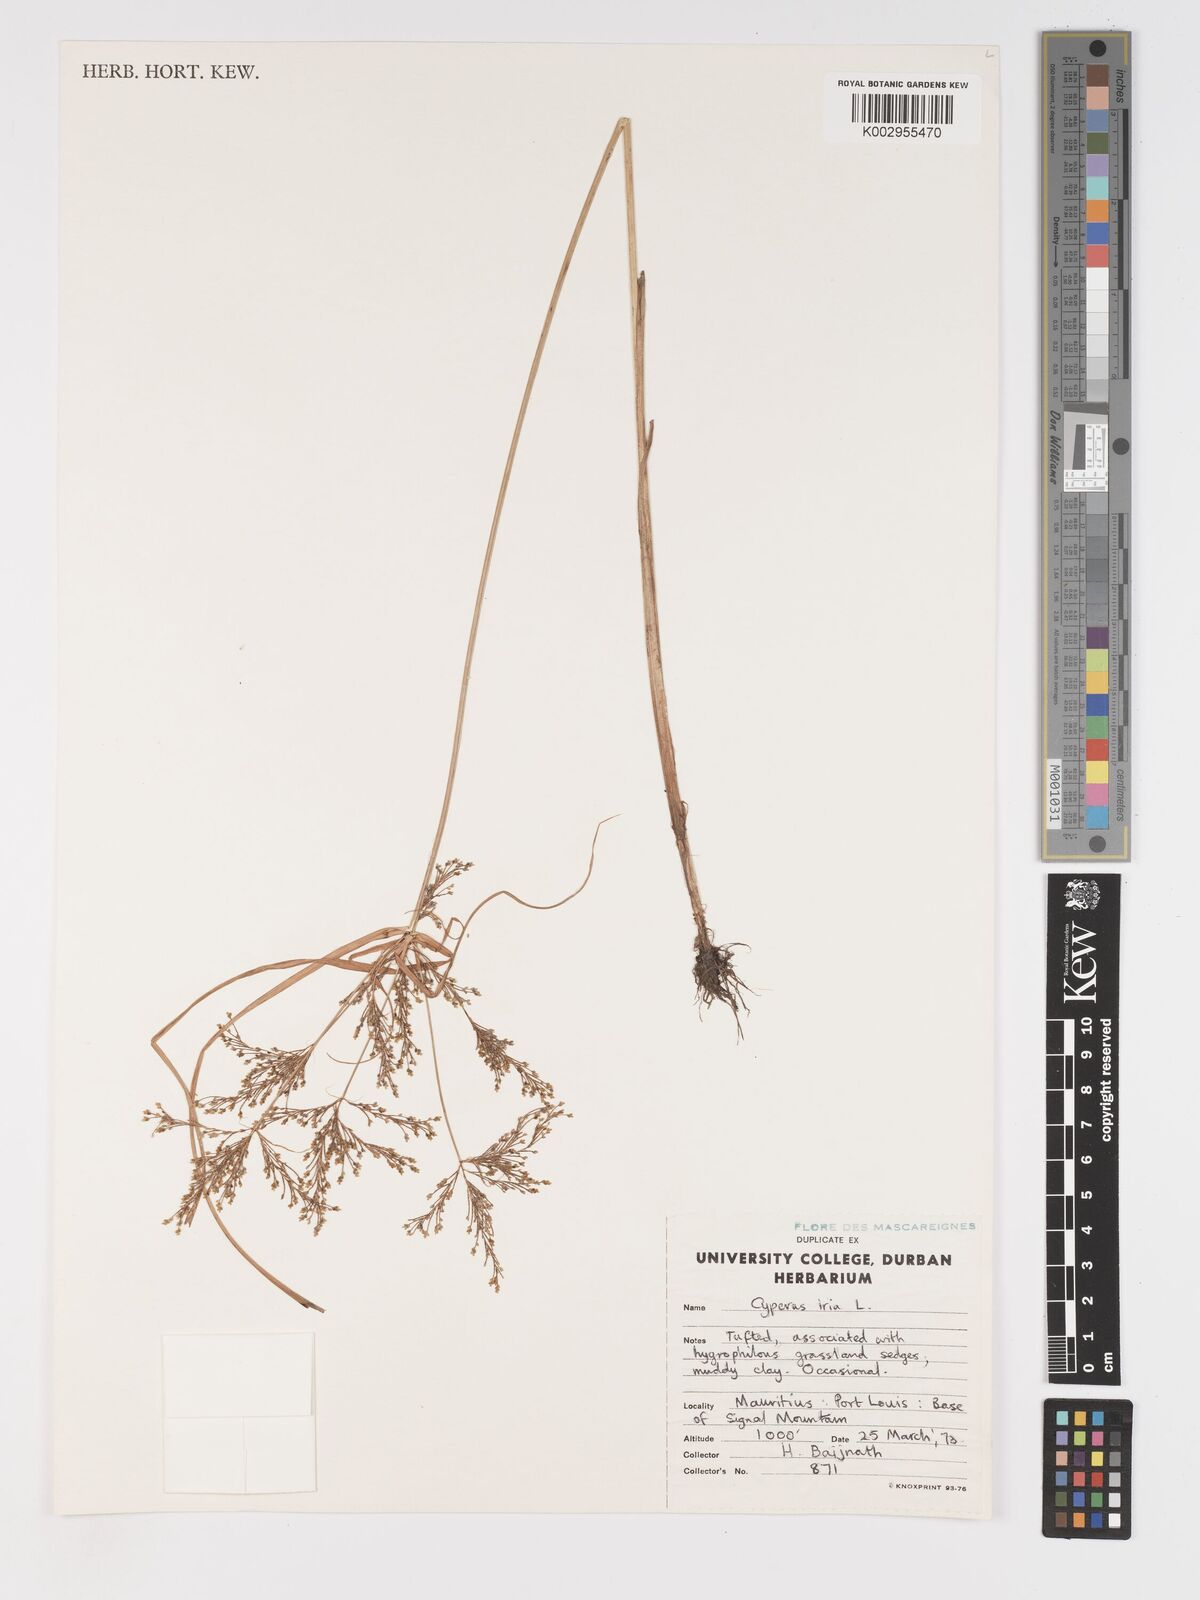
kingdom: Plantae
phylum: Tracheophyta
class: Liliopsida
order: Poales
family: Cyperaceae
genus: Cyperus
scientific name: Cyperus iria
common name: Ricefield flatsedge
